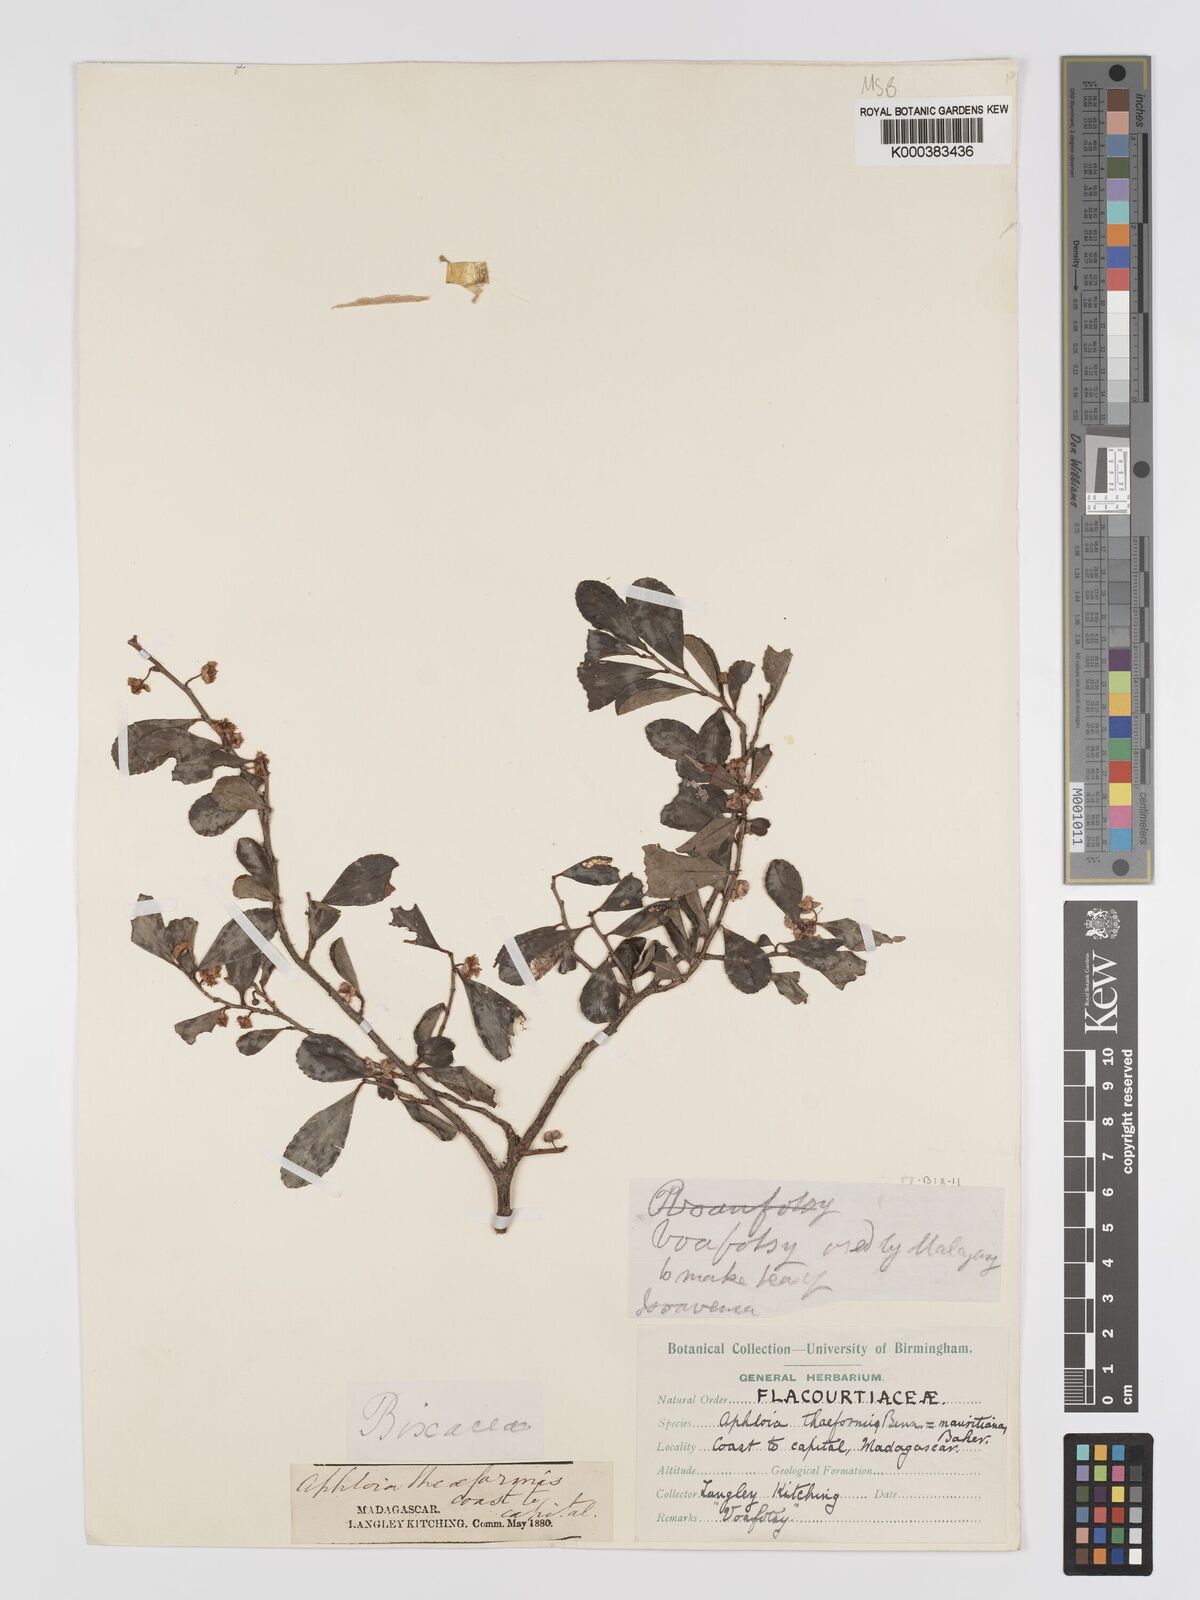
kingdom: Plantae
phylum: Tracheophyta
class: Magnoliopsida
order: Crossosomatales
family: Aphloiaceae
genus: Aphloia
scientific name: Aphloia theiformis
